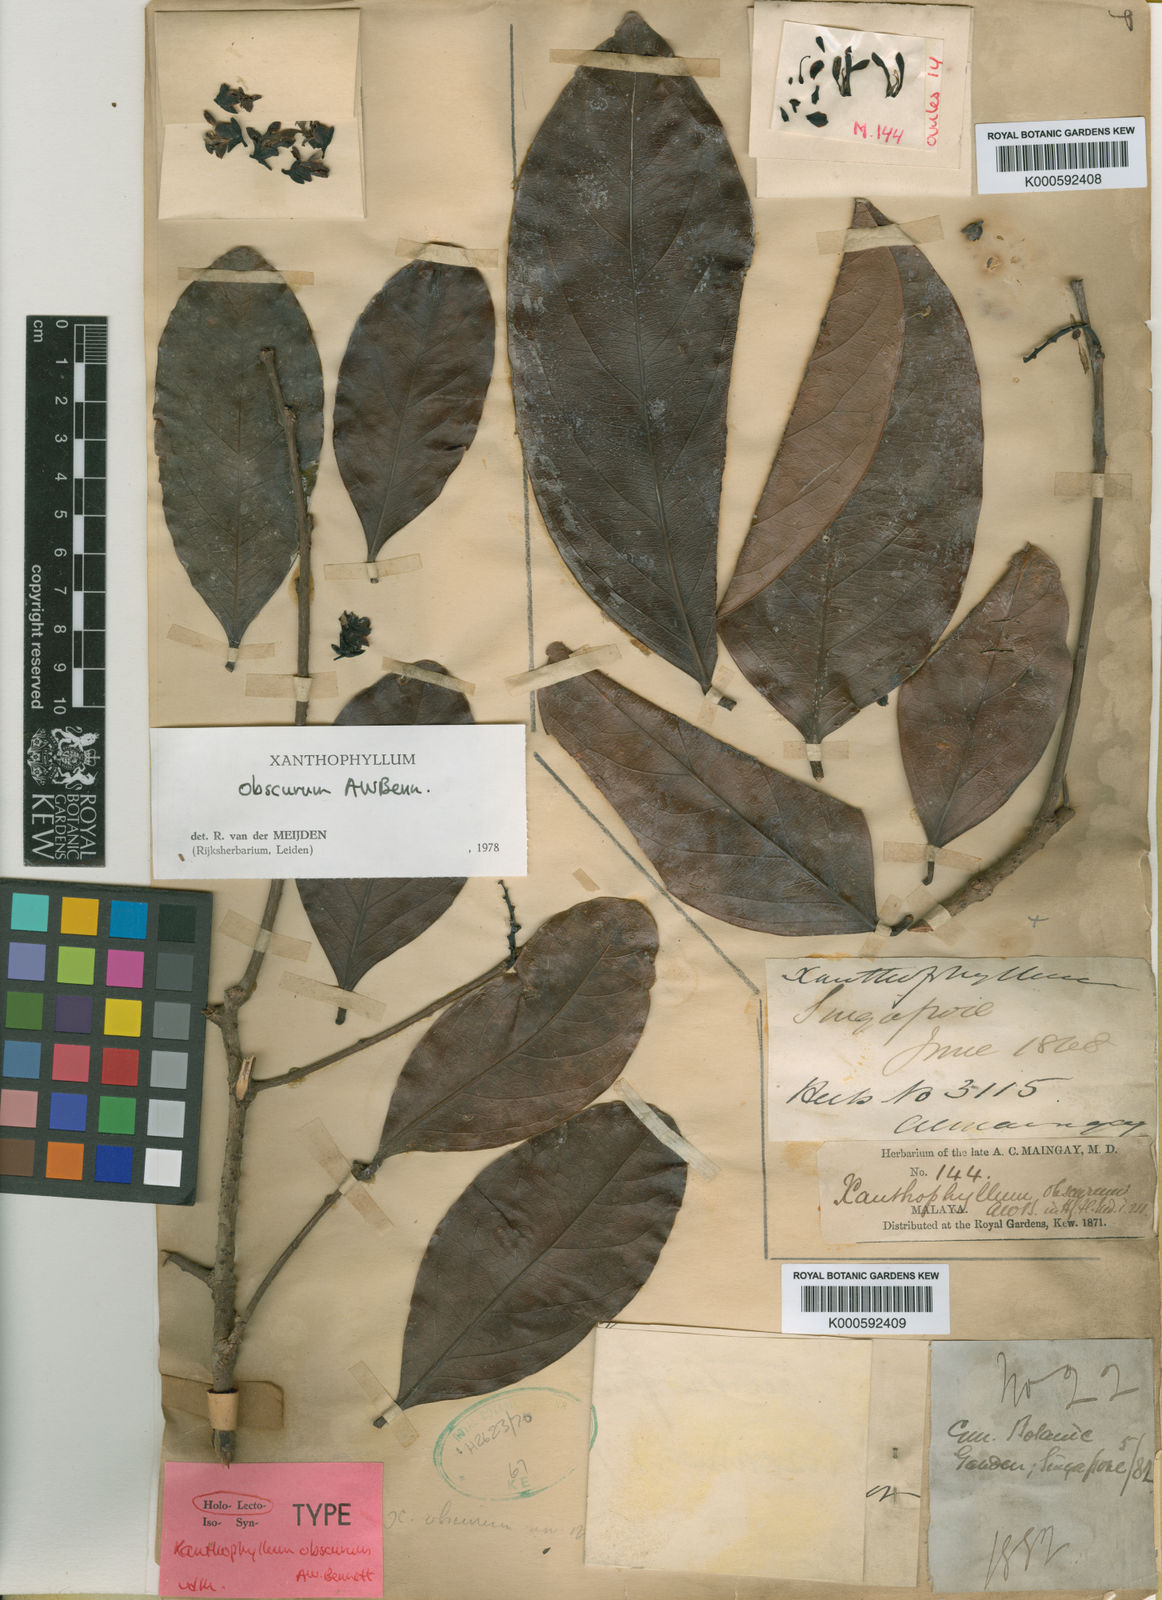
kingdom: Plantae
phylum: Tracheophyta
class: Magnoliopsida
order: Fabales
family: Polygalaceae
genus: Xanthophyllum
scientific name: Xanthophyllum obscurum
